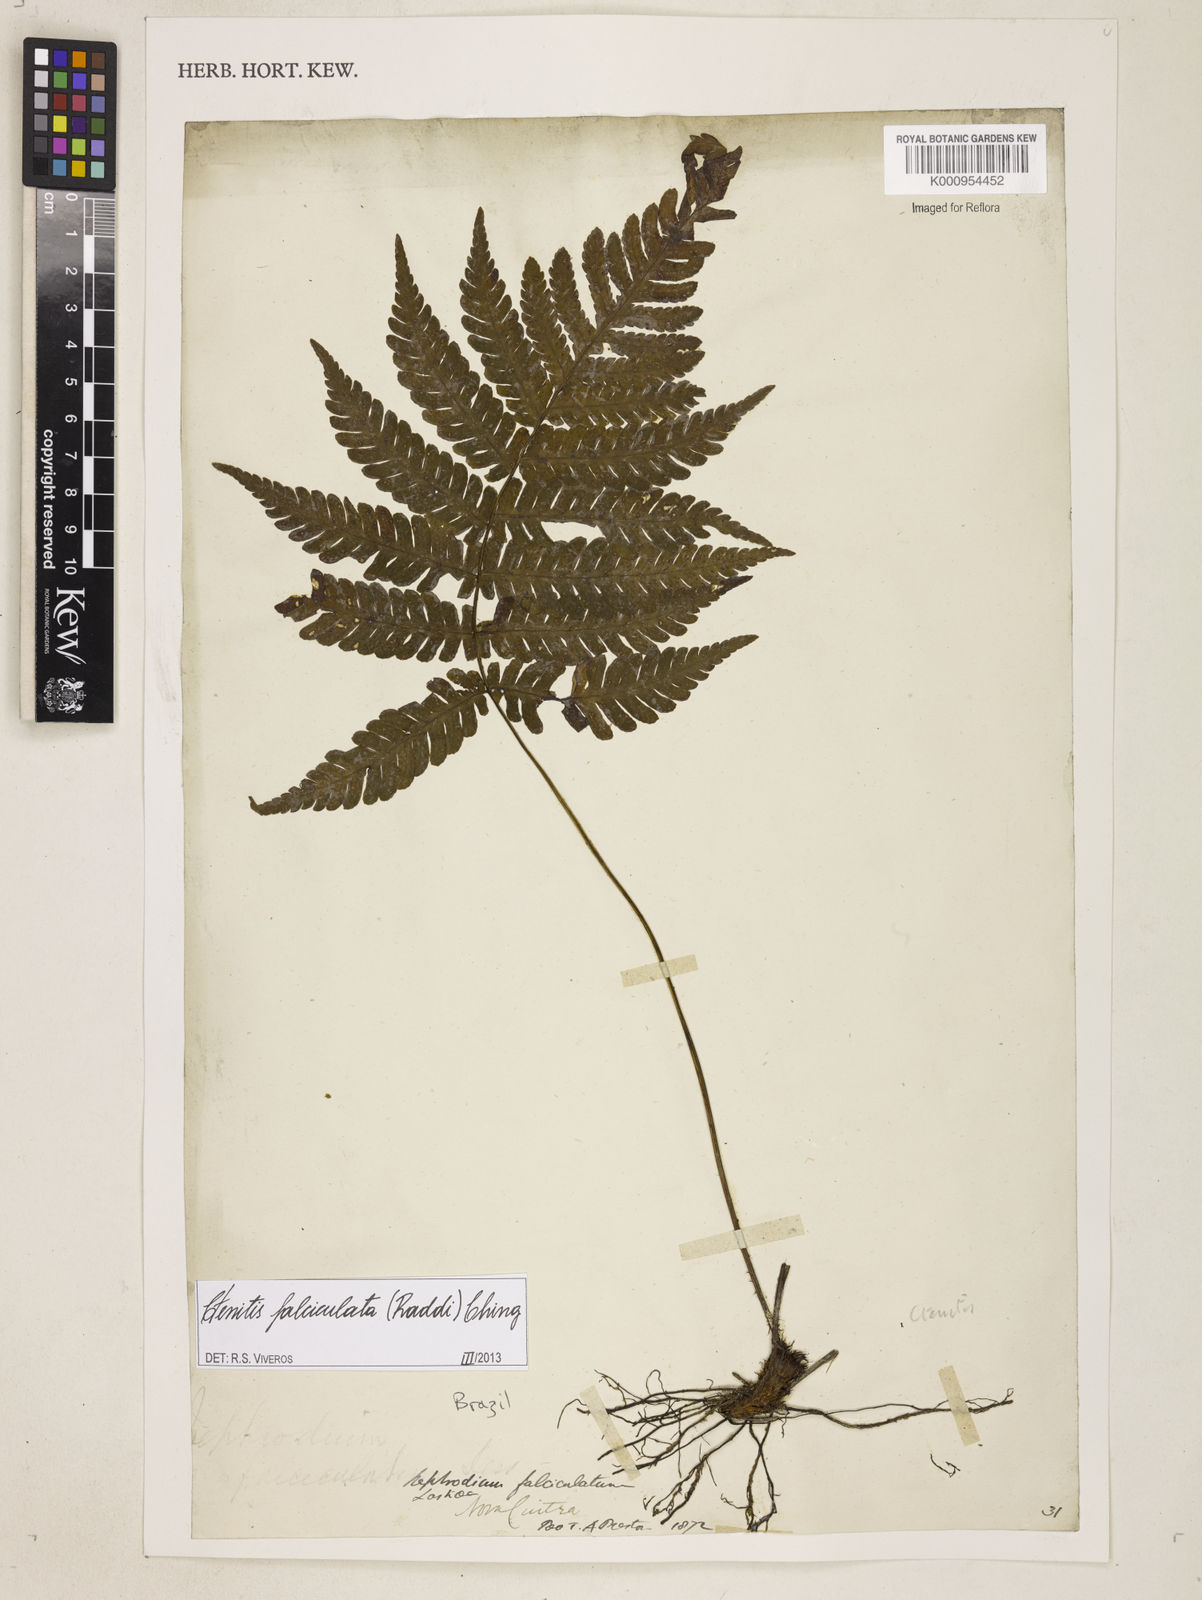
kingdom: Plantae
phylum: Tracheophyta
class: Polypodiopsida
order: Polypodiales
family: Dryopteridaceae
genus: Ctenitis
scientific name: Ctenitis falciculata
